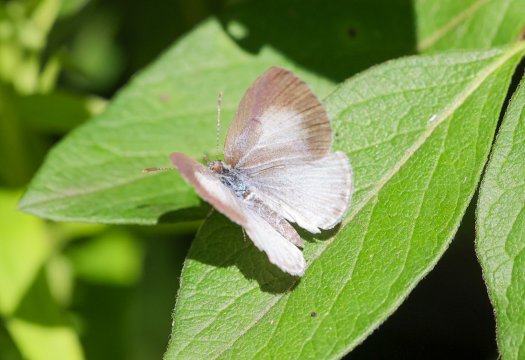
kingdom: Animalia
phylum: Arthropoda
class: Insecta
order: Lepidoptera
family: Lycaenidae
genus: Cyaniris
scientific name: Cyaniris neglecta
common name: Summer Azure
